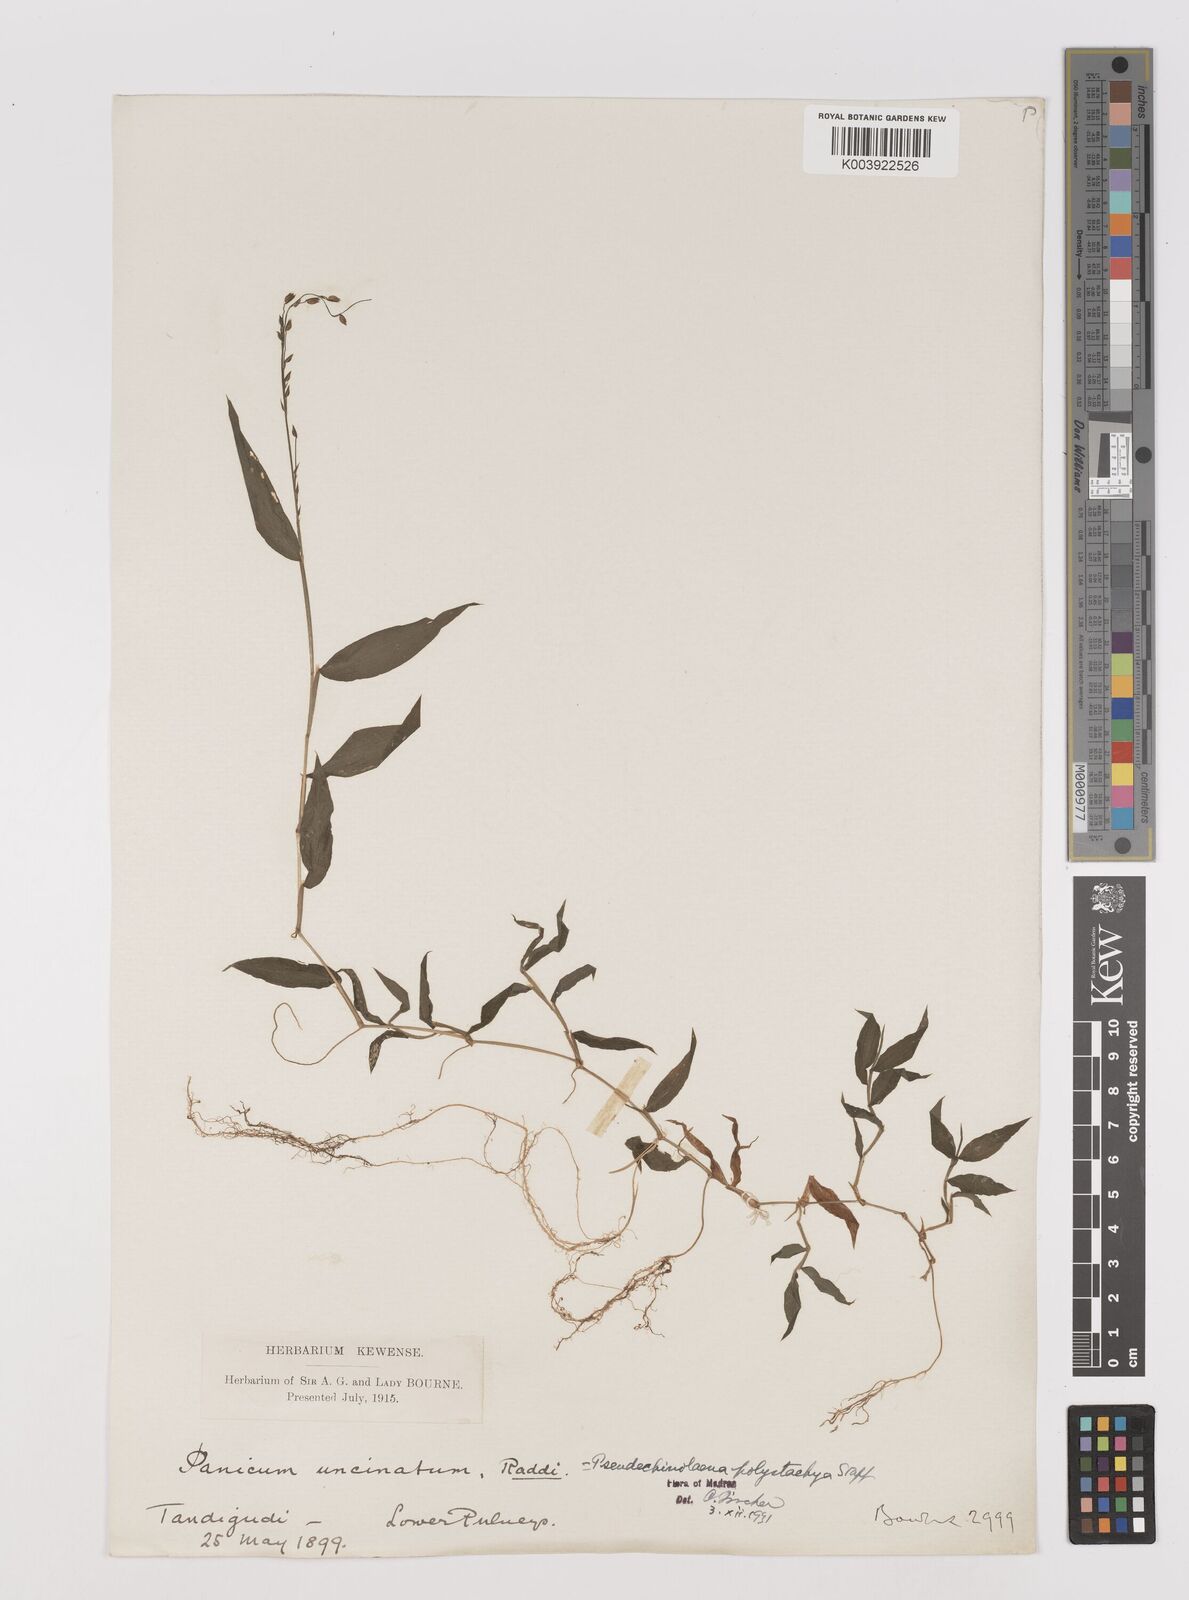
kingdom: Plantae
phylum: Tracheophyta
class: Liliopsida
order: Poales
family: Poaceae
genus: Pseudechinolaena
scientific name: Pseudechinolaena polystachya
